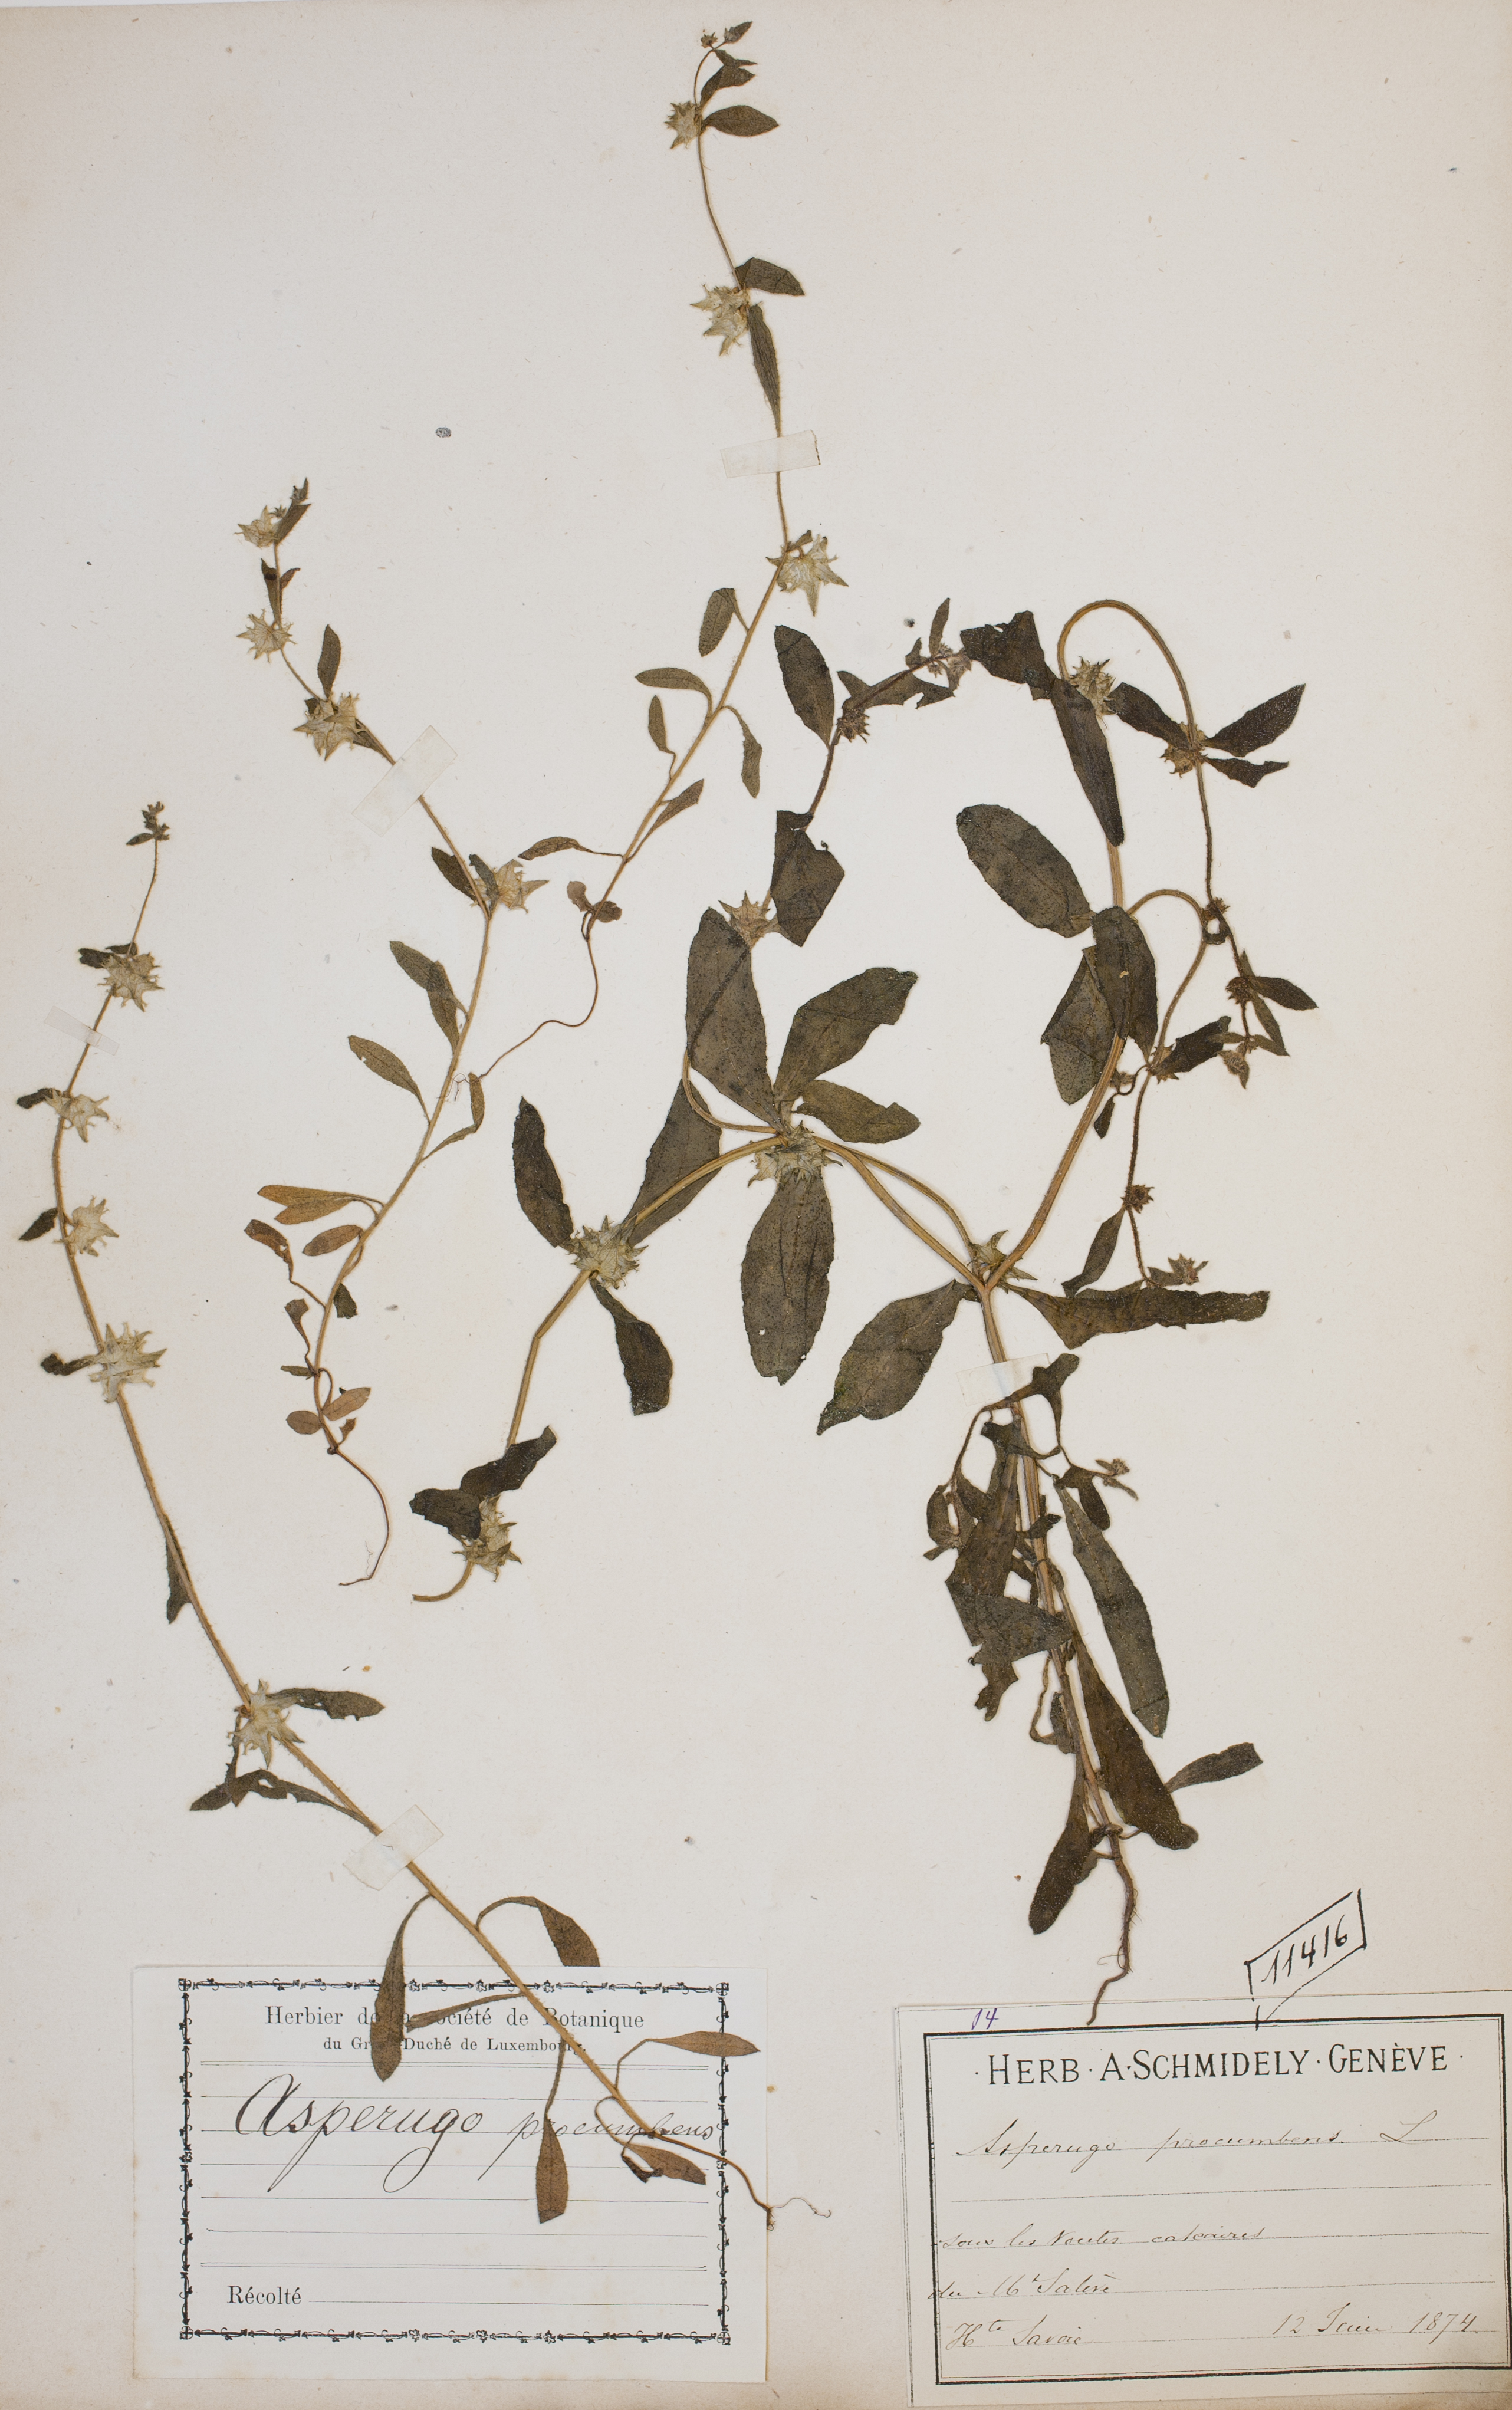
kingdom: Plantae
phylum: Tracheophyta
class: Magnoliopsida
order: Boraginales
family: Boraginaceae
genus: Asperugo
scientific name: Asperugo procumbens
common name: Madwort
